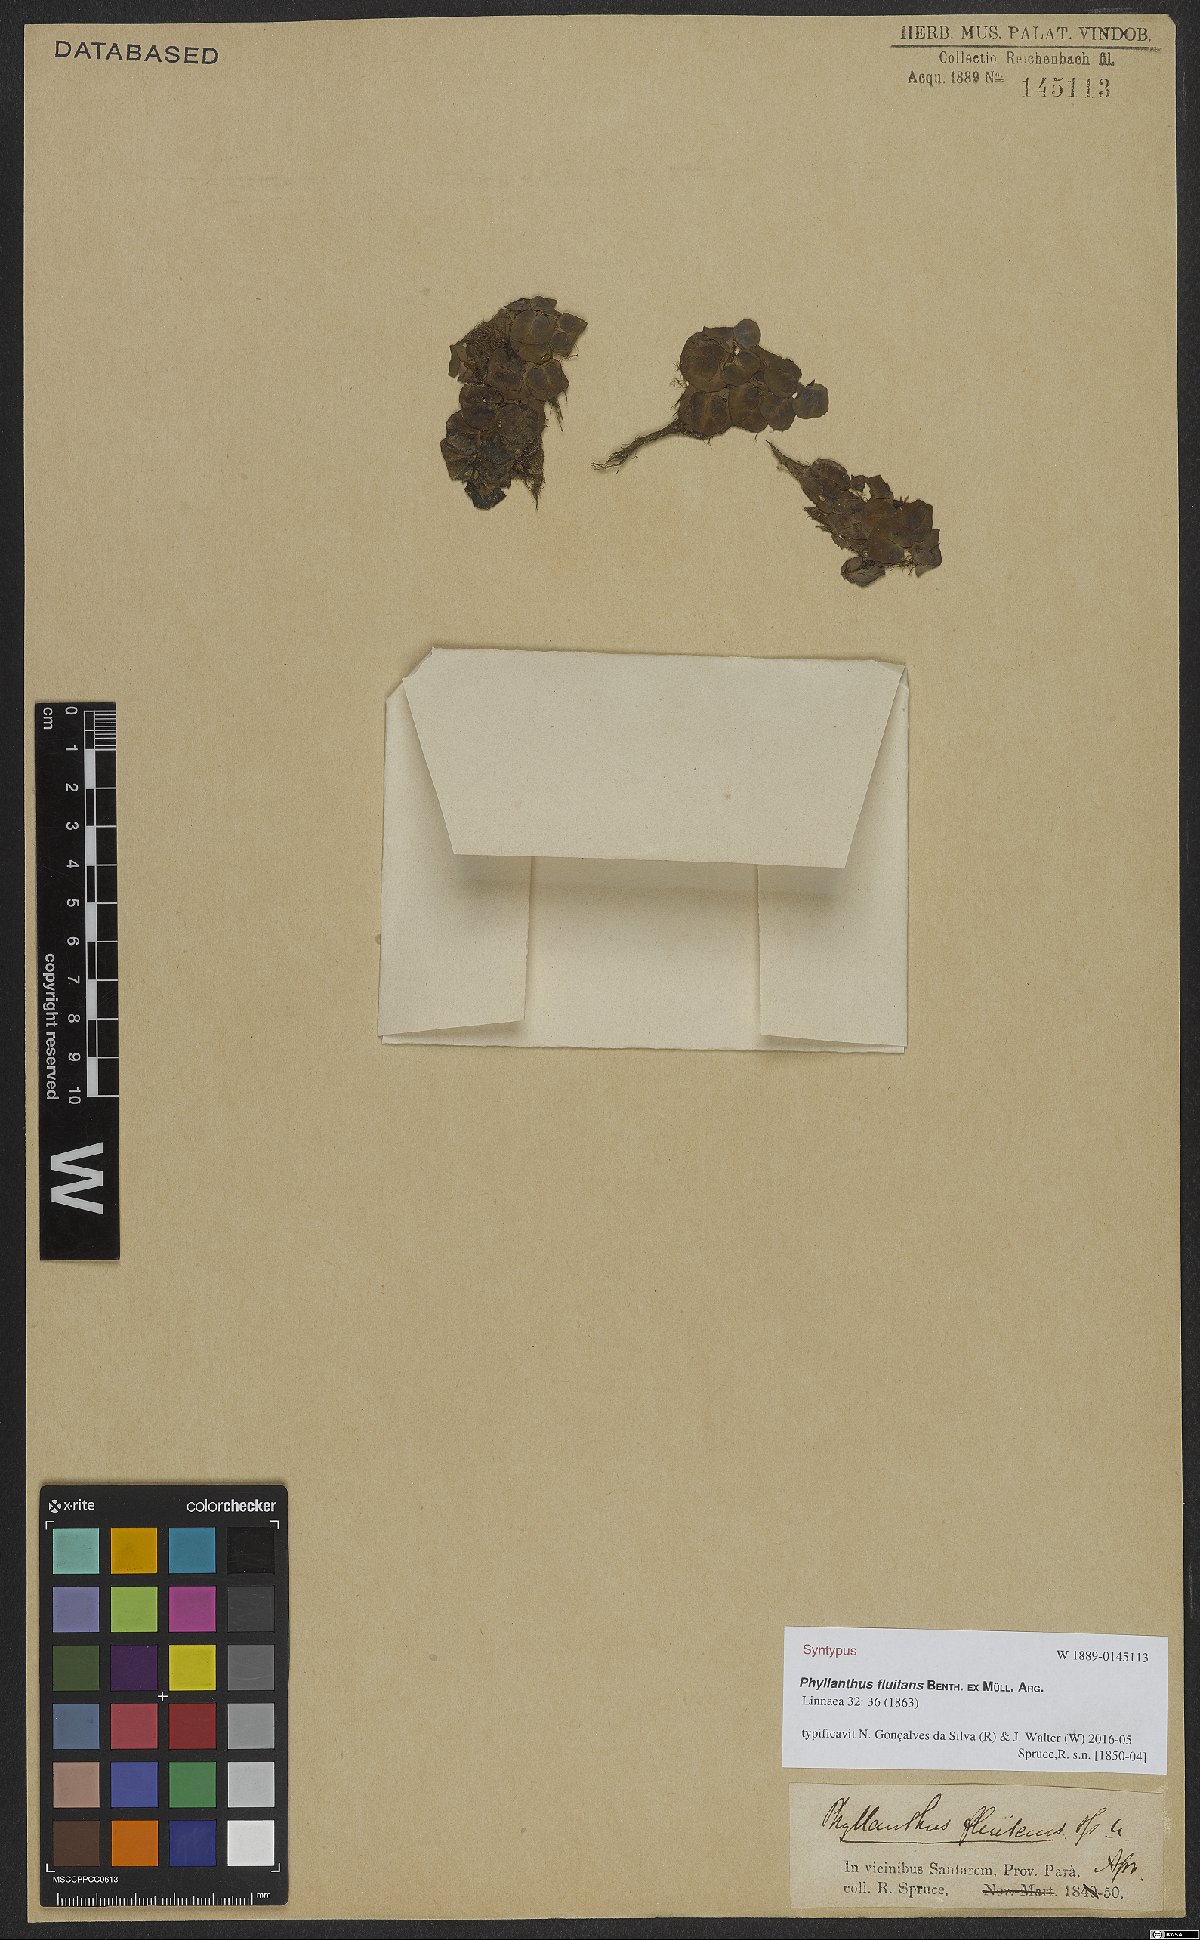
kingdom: Plantae
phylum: Tracheophyta
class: Magnoliopsida
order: Malpighiales
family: Phyllanthaceae
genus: Phyllanthus
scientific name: Phyllanthus fluitans
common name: Floating spurge
